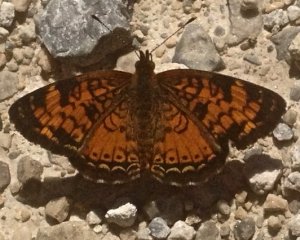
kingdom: Animalia
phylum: Arthropoda
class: Insecta
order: Lepidoptera
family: Nymphalidae
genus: Phyciodes
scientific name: Phyciodes tharos
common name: Pearl Crescent
